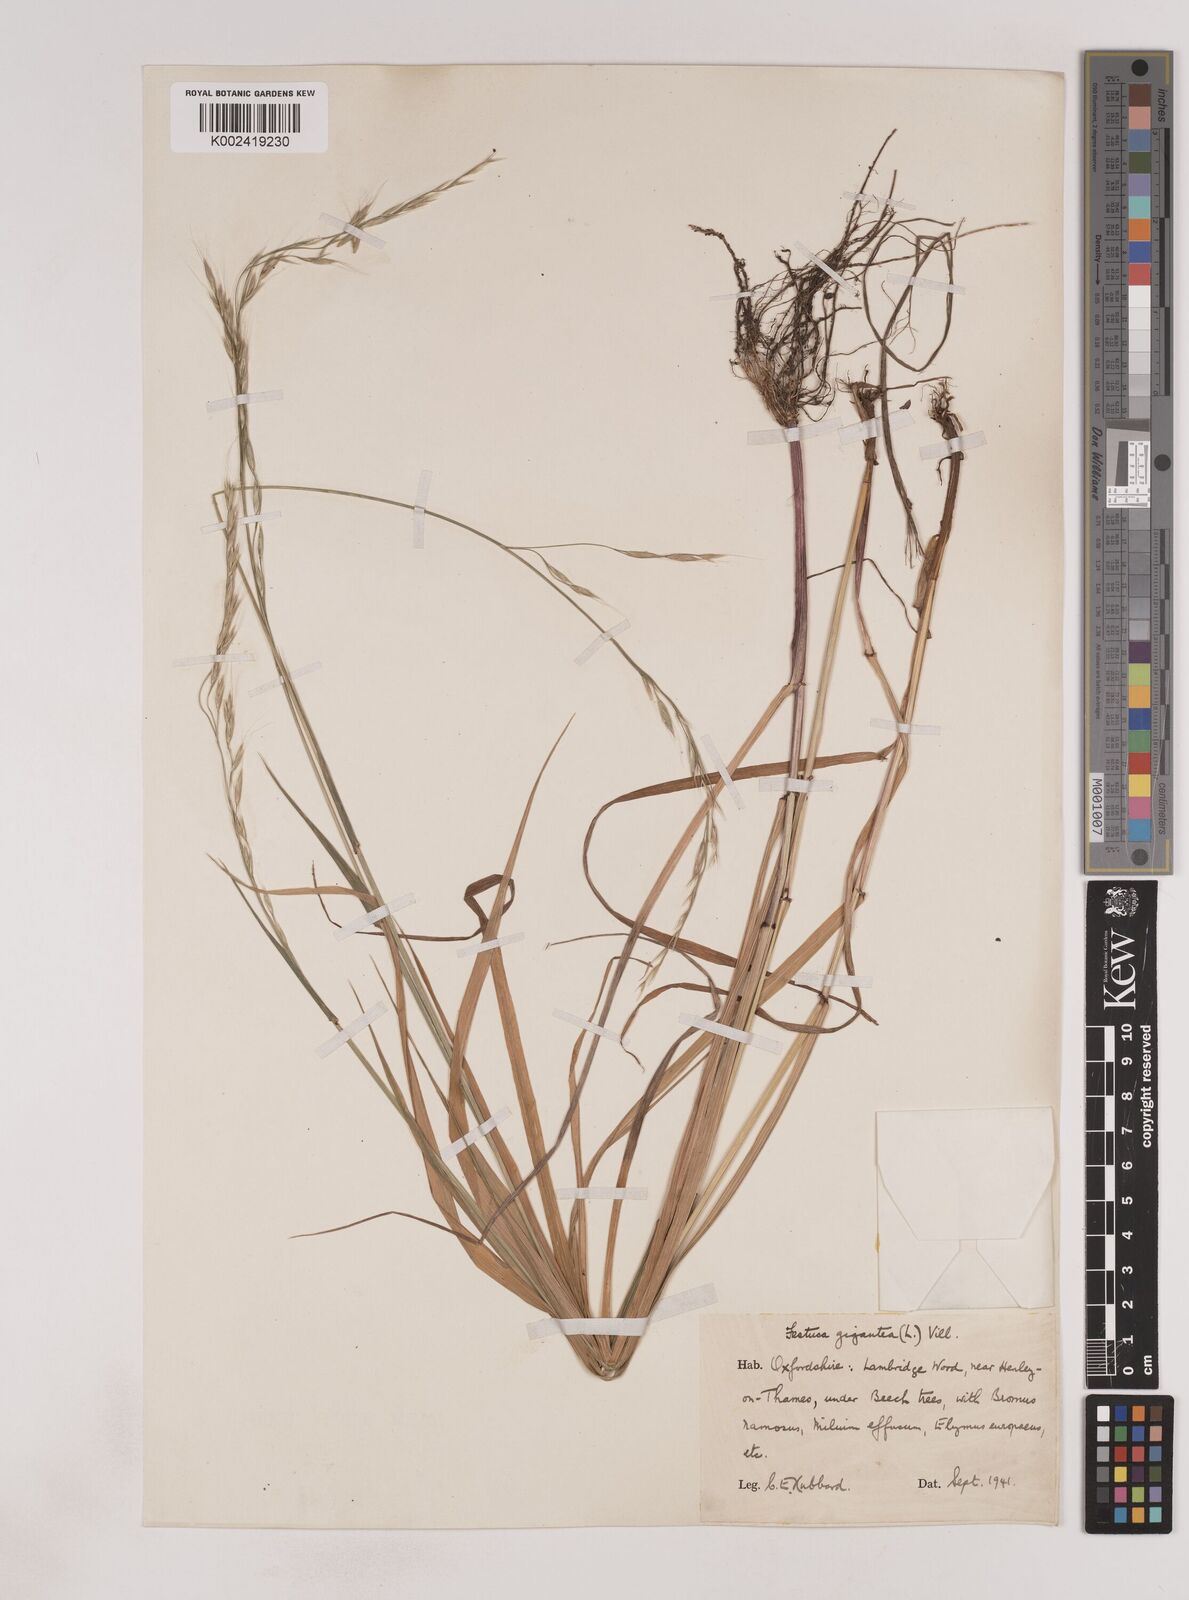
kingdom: Plantae
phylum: Tracheophyta
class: Liliopsida
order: Poales
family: Poaceae
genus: Lolium
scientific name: Lolium giganteum
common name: Giant fescue
